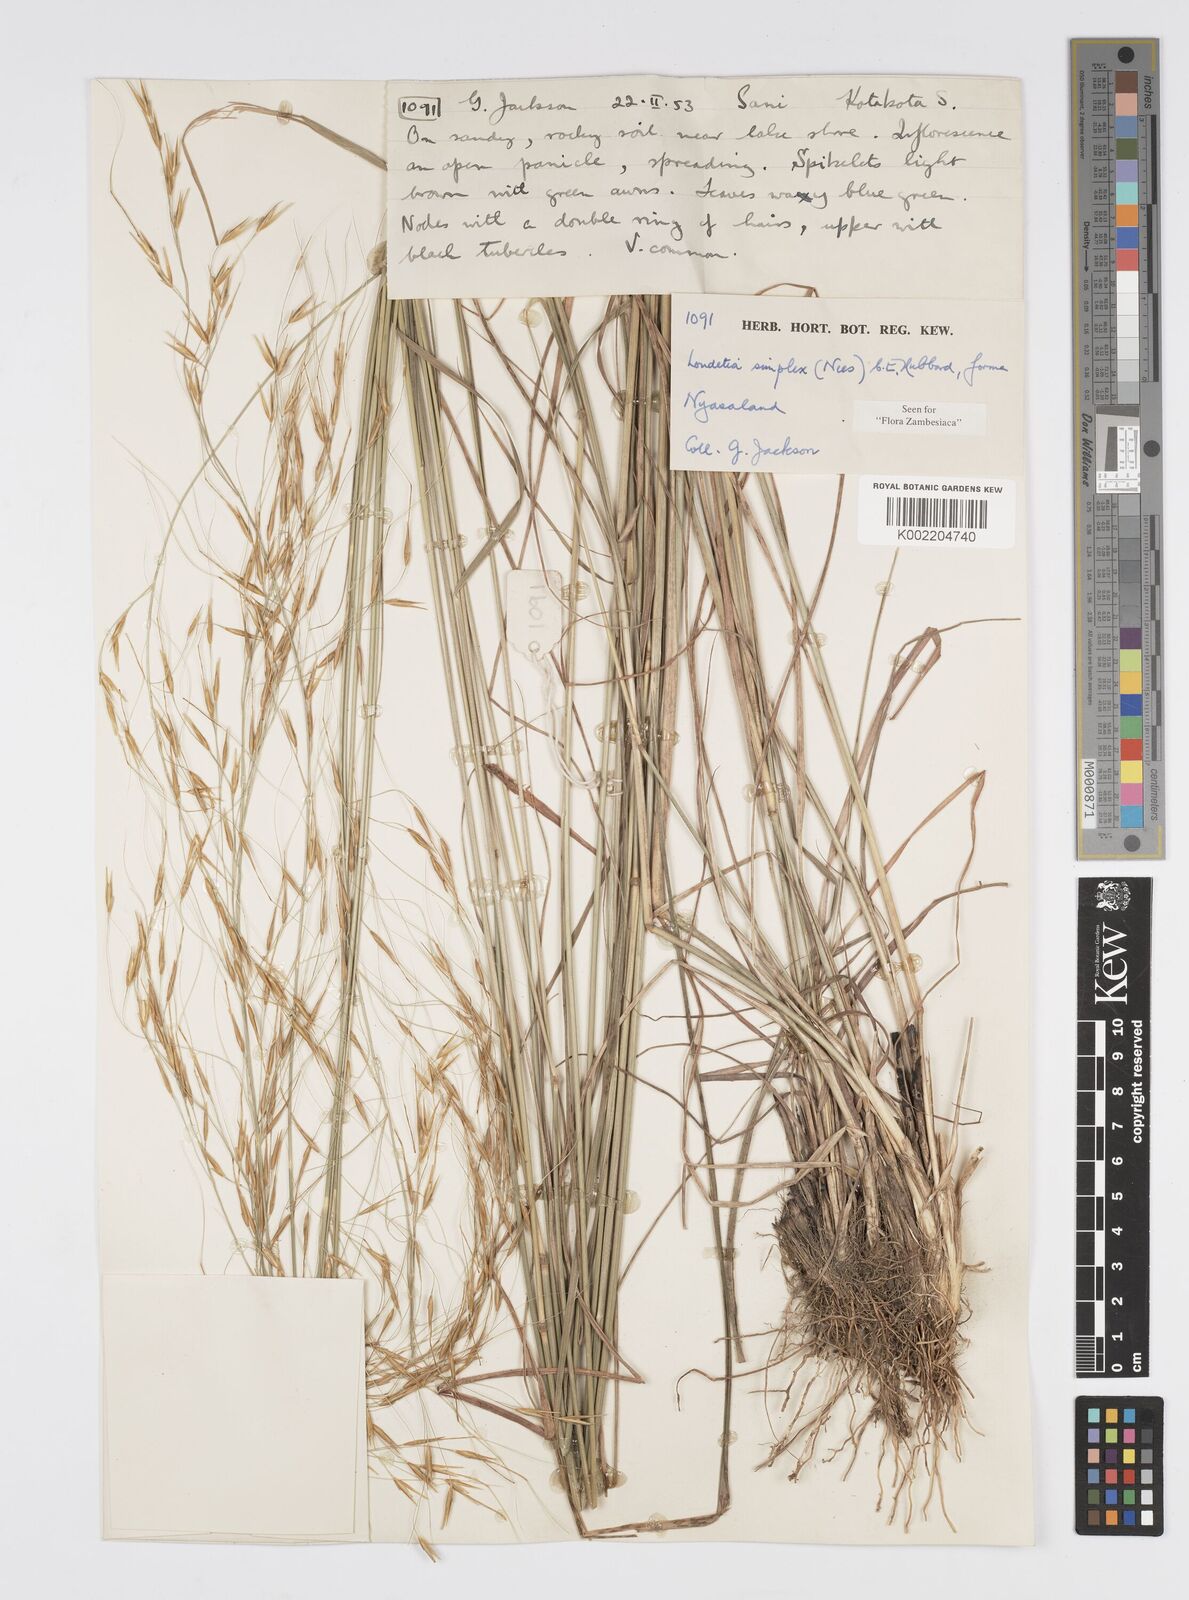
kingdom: Plantae
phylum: Tracheophyta
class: Liliopsida
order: Poales
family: Poaceae
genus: Loudetia
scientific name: Loudetia simplex
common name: Common russet grass
